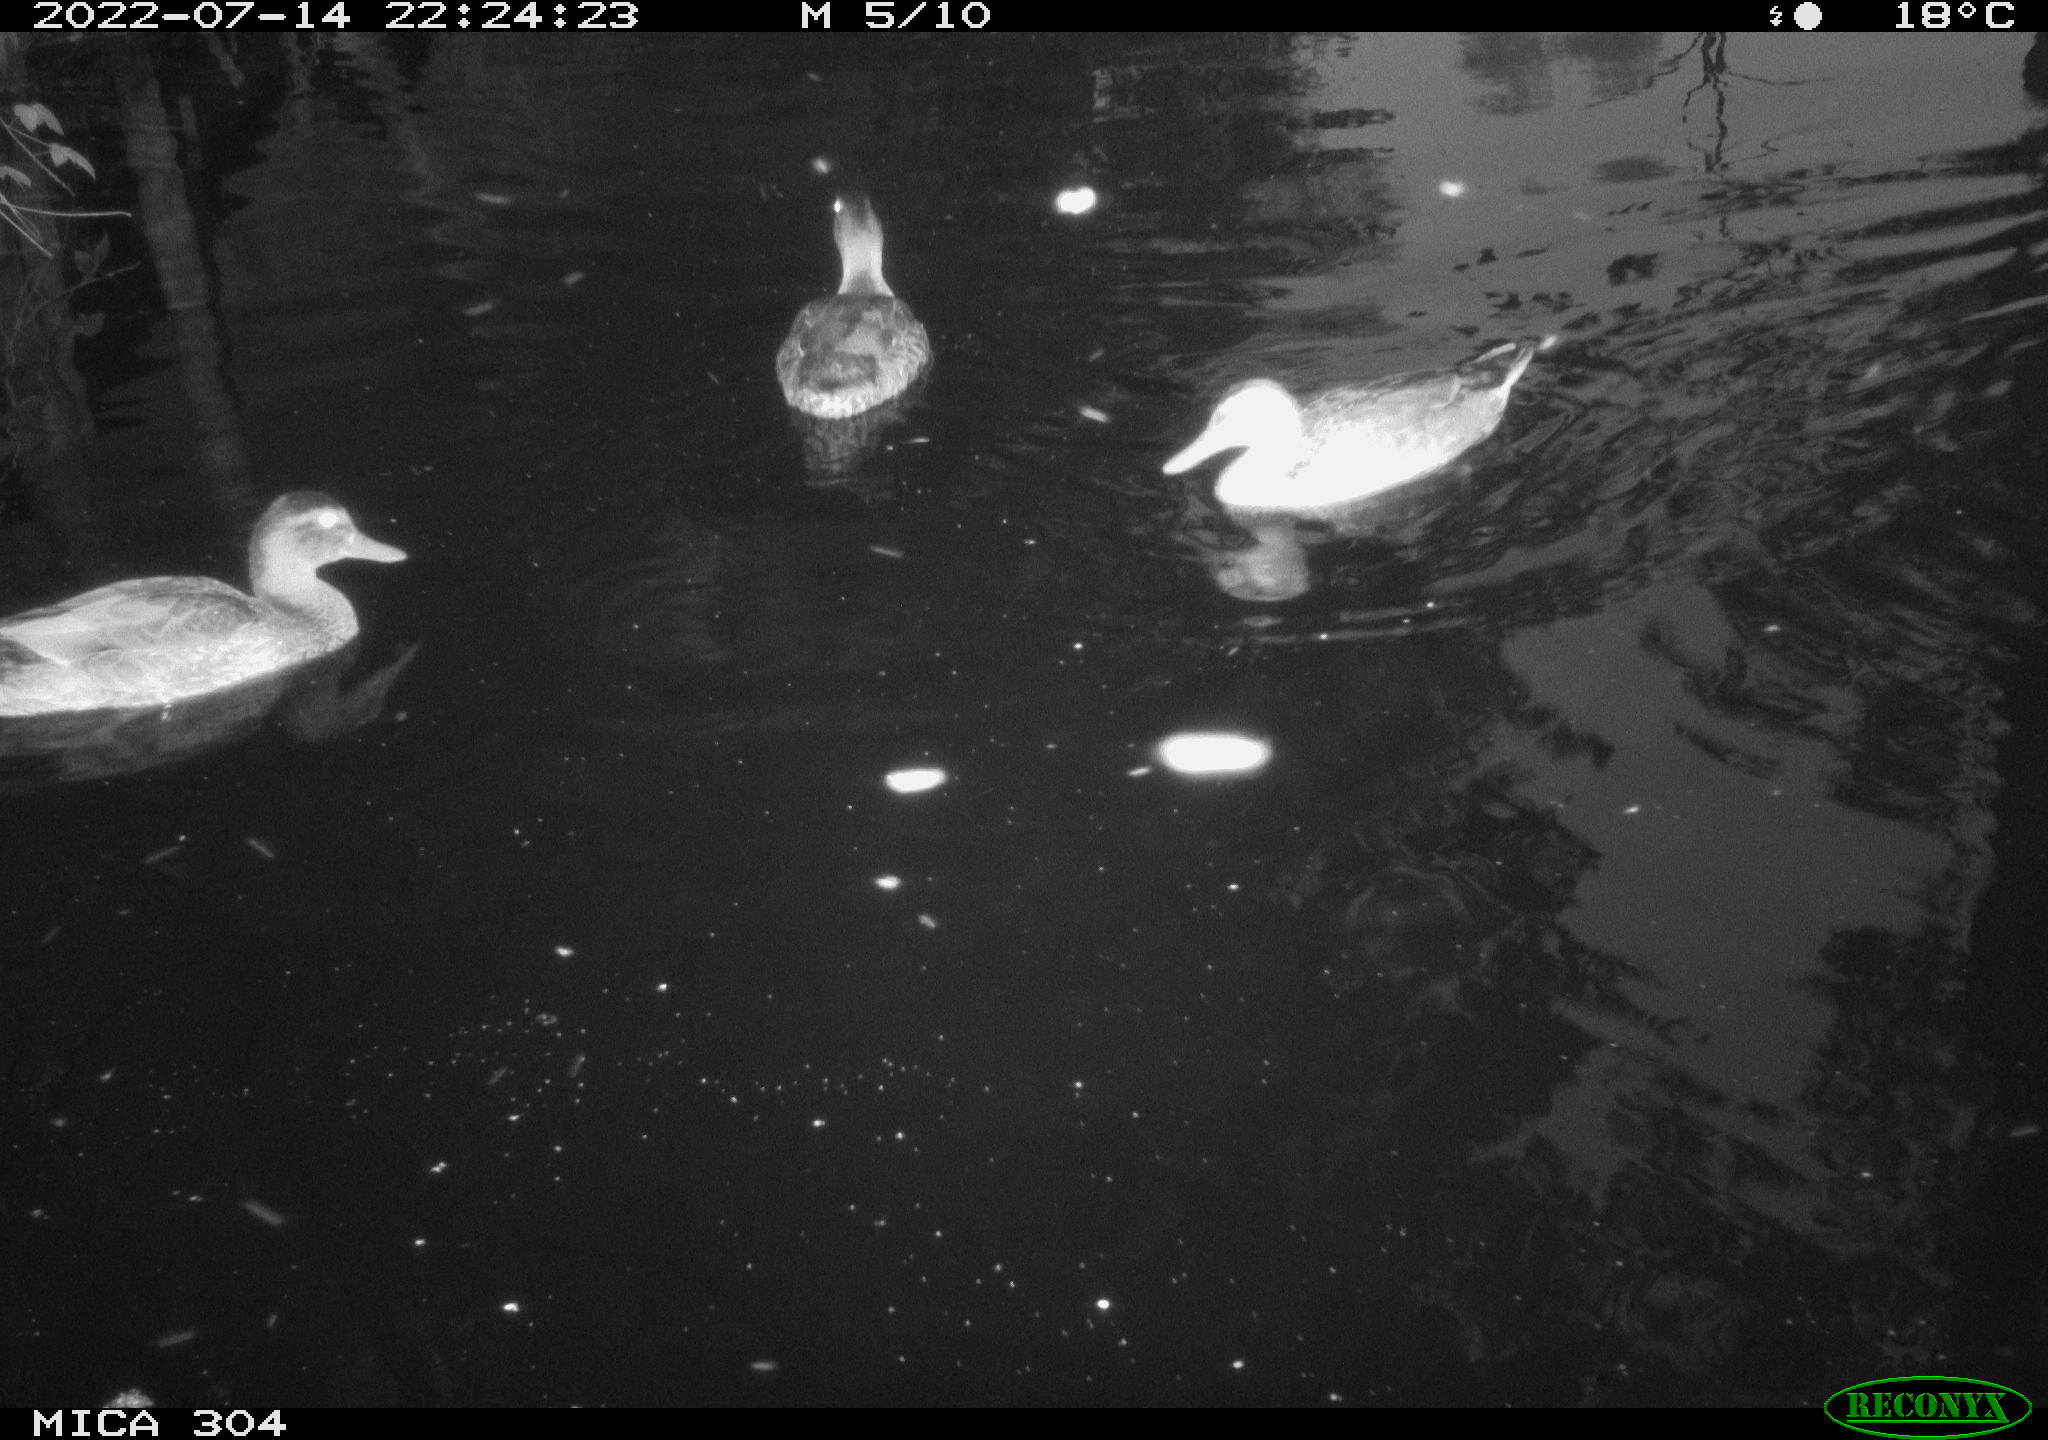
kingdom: Animalia
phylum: Chordata
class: Aves
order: Anseriformes
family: Anatidae
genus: Mareca
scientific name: Mareca strepera
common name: Gadwall
